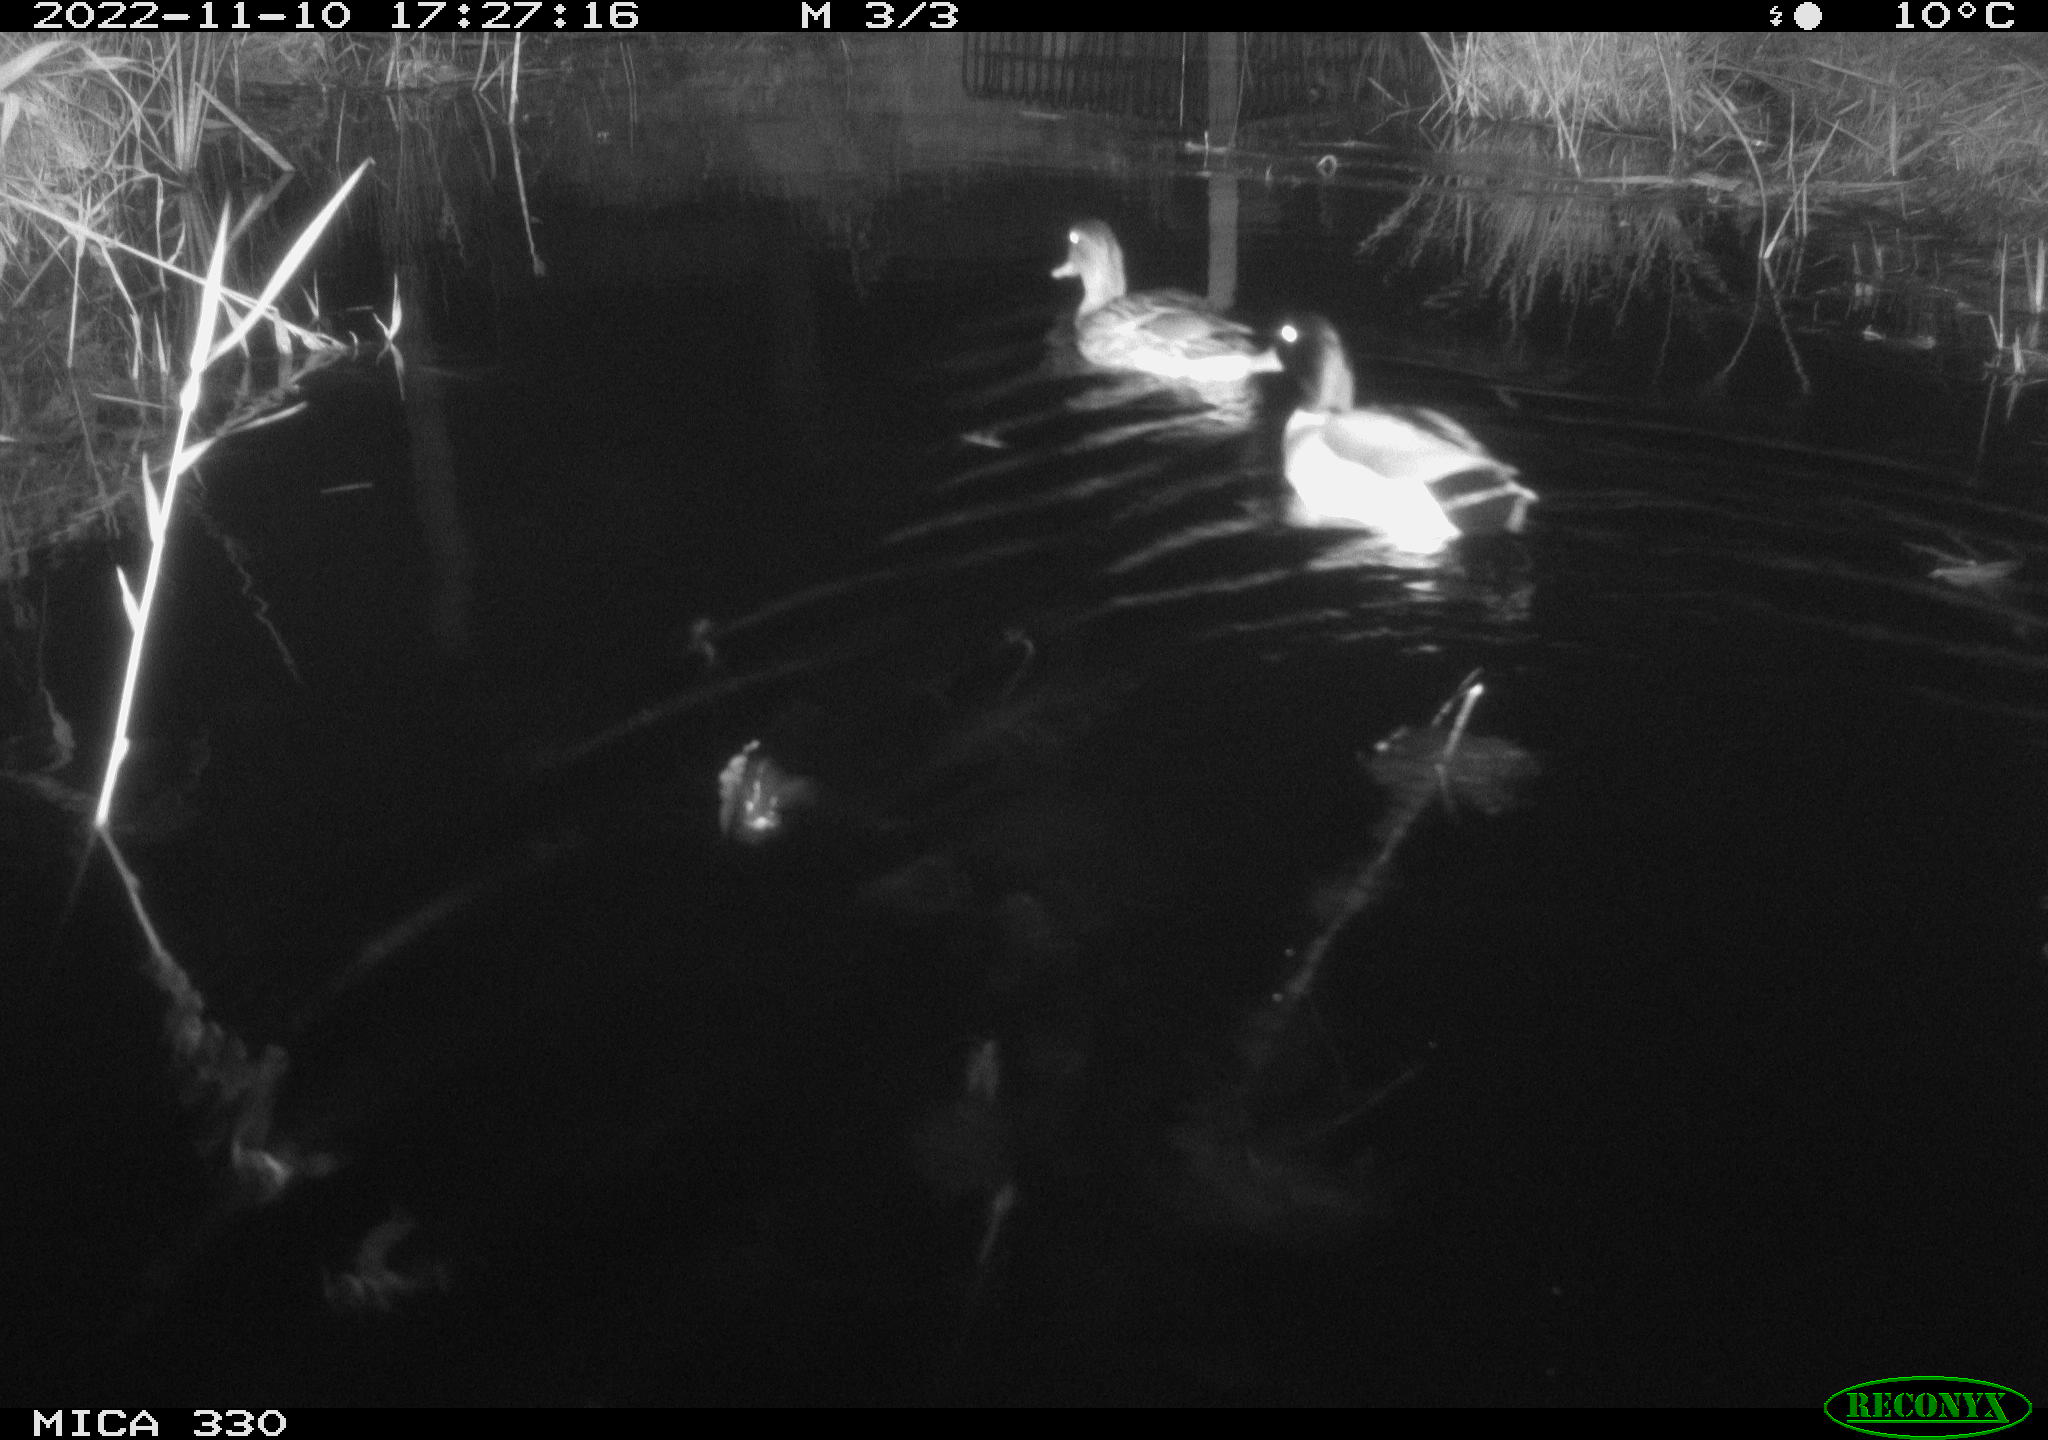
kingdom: Animalia
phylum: Chordata
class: Aves
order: Anseriformes
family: Anatidae
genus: Anas
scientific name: Anas
